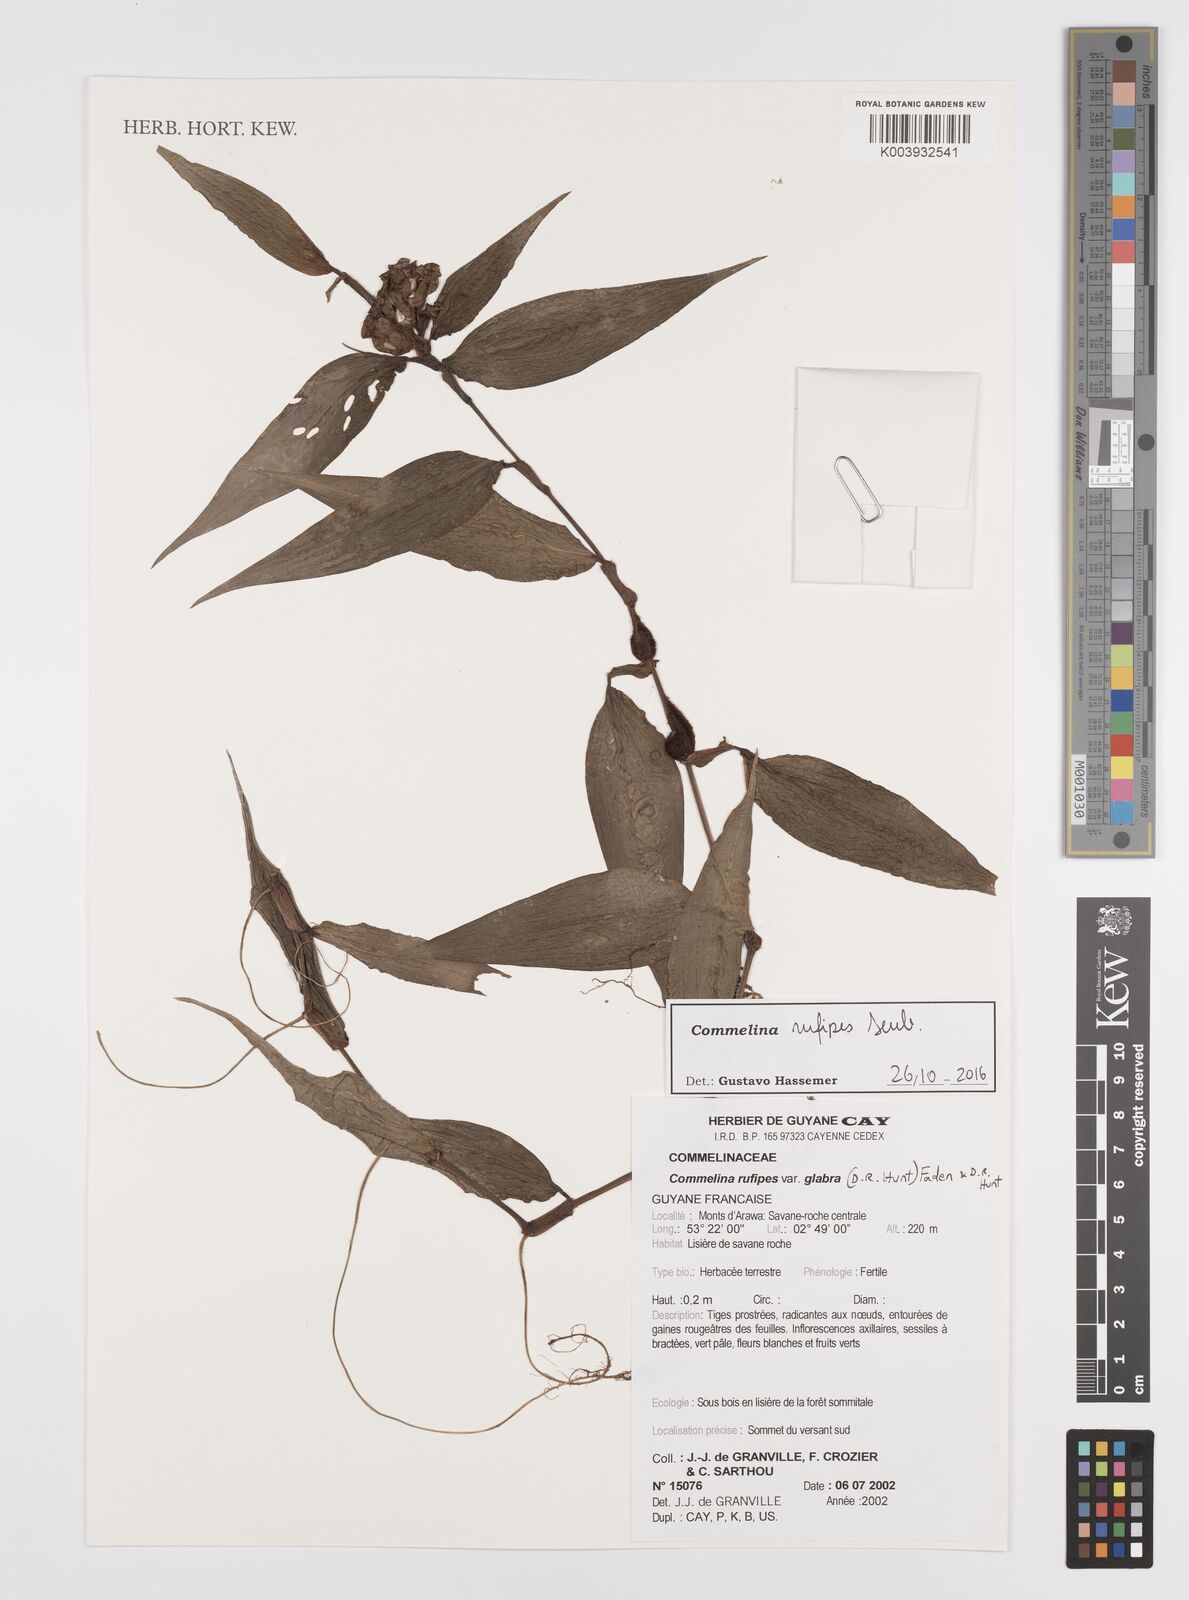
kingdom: Plantae
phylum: Tracheophyta
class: Liliopsida
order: Commelinales
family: Commelinaceae
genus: Commelina
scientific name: Commelina rufipes
